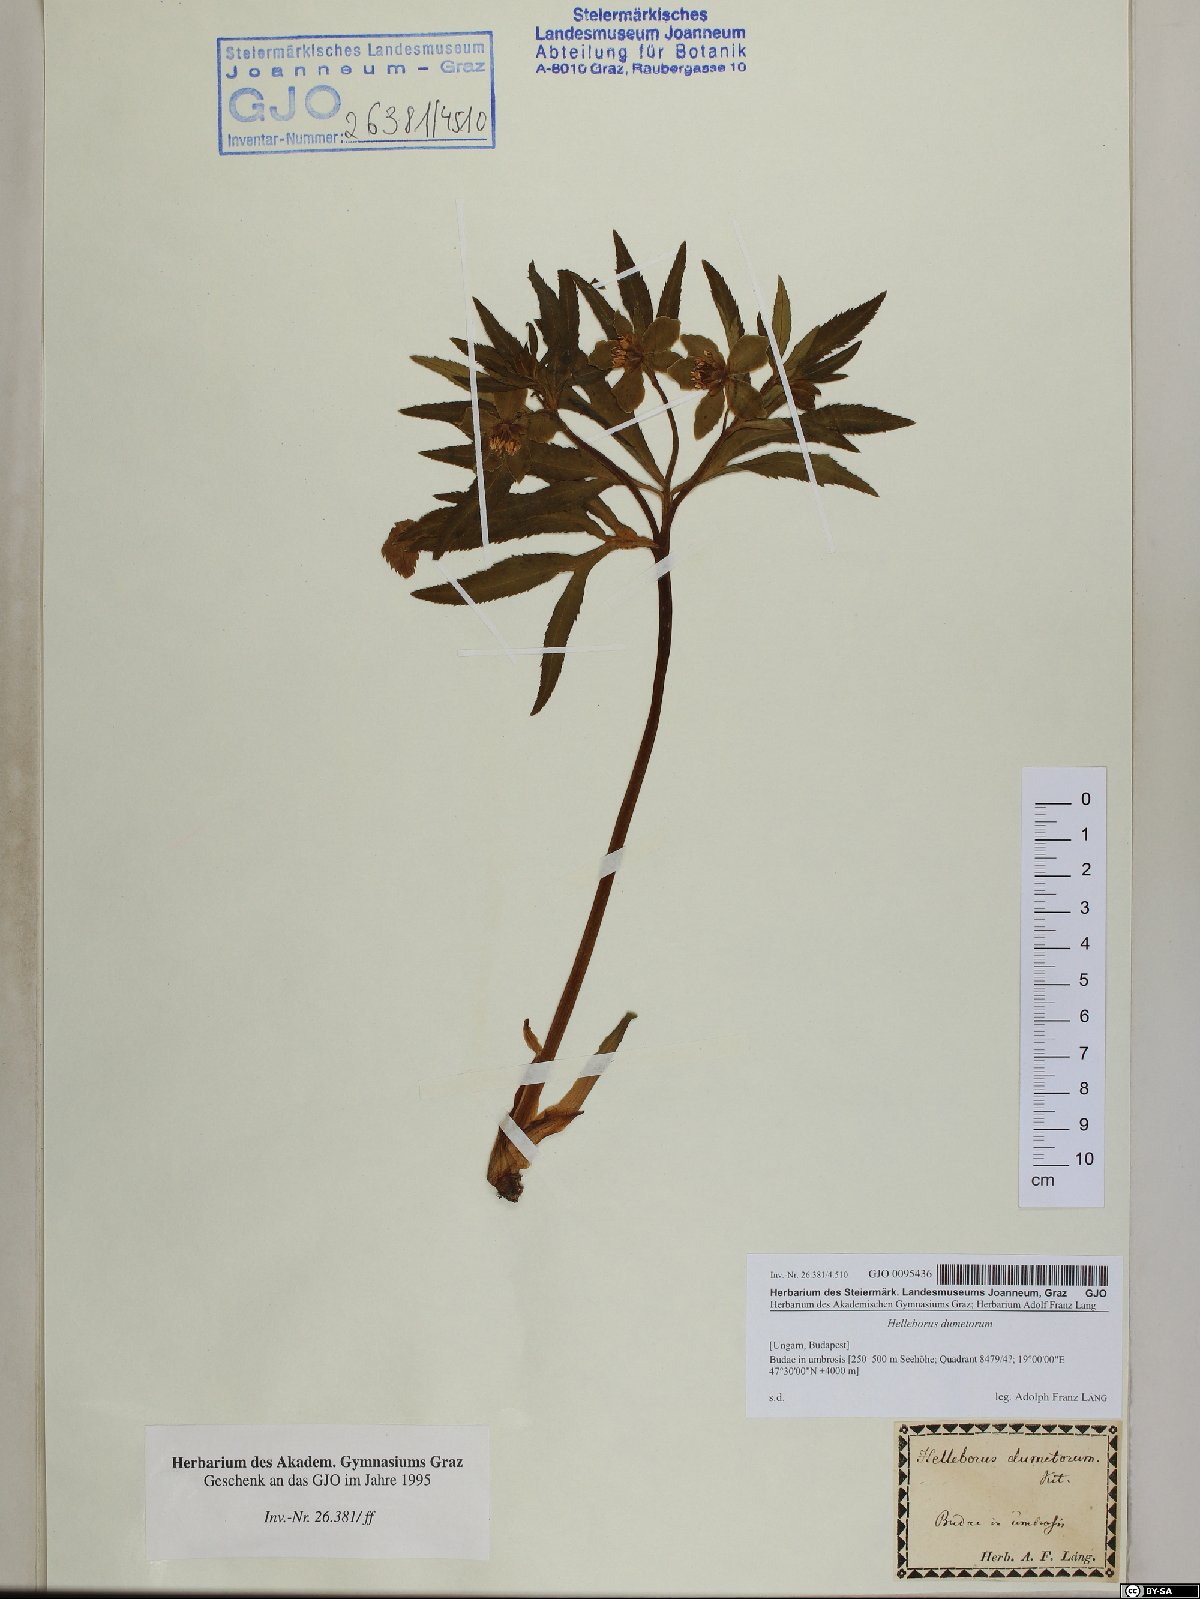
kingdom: Plantae
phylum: Tracheophyta
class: Magnoliopsida
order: Ranunculales
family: Ranunculaceae
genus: Helleborus
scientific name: Helleborus dumetorum
